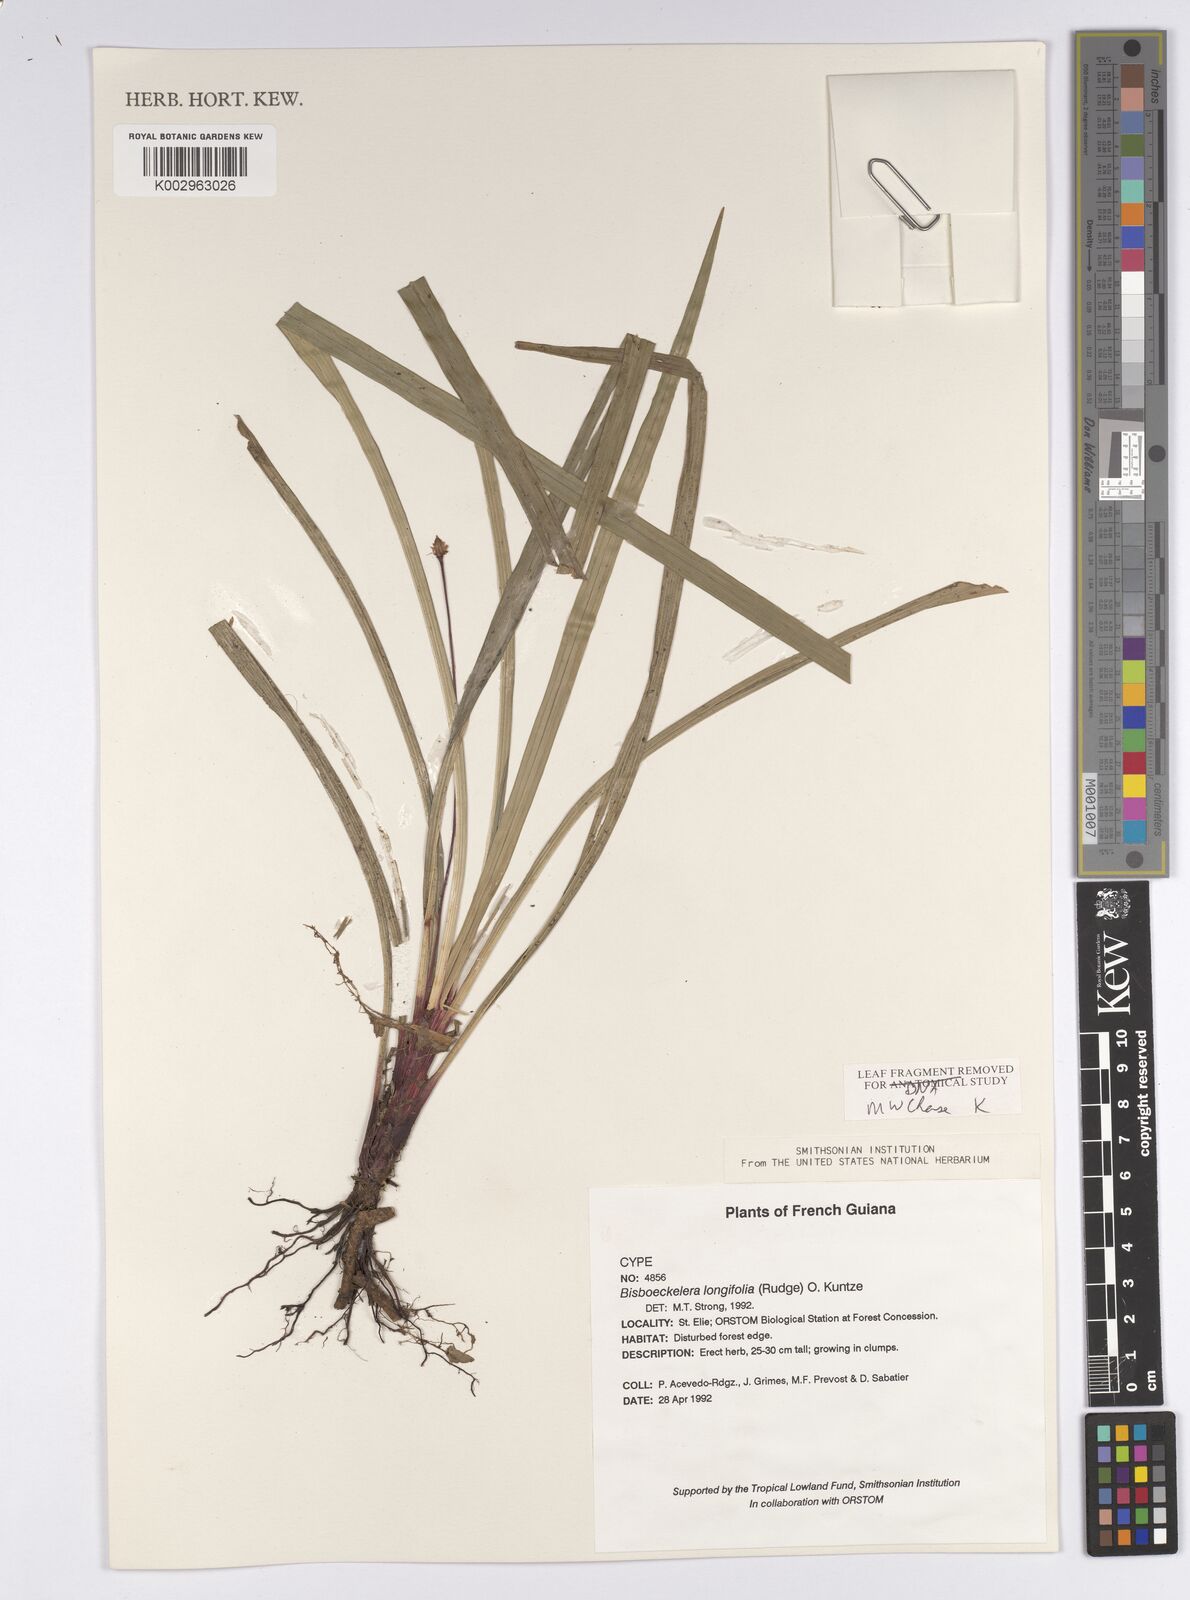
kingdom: Plantae
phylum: Tracheophyta
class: Liliopsida
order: Poales
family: Cyperaceae
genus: Bisboeckelera
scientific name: Bisboeckelera microcephala
